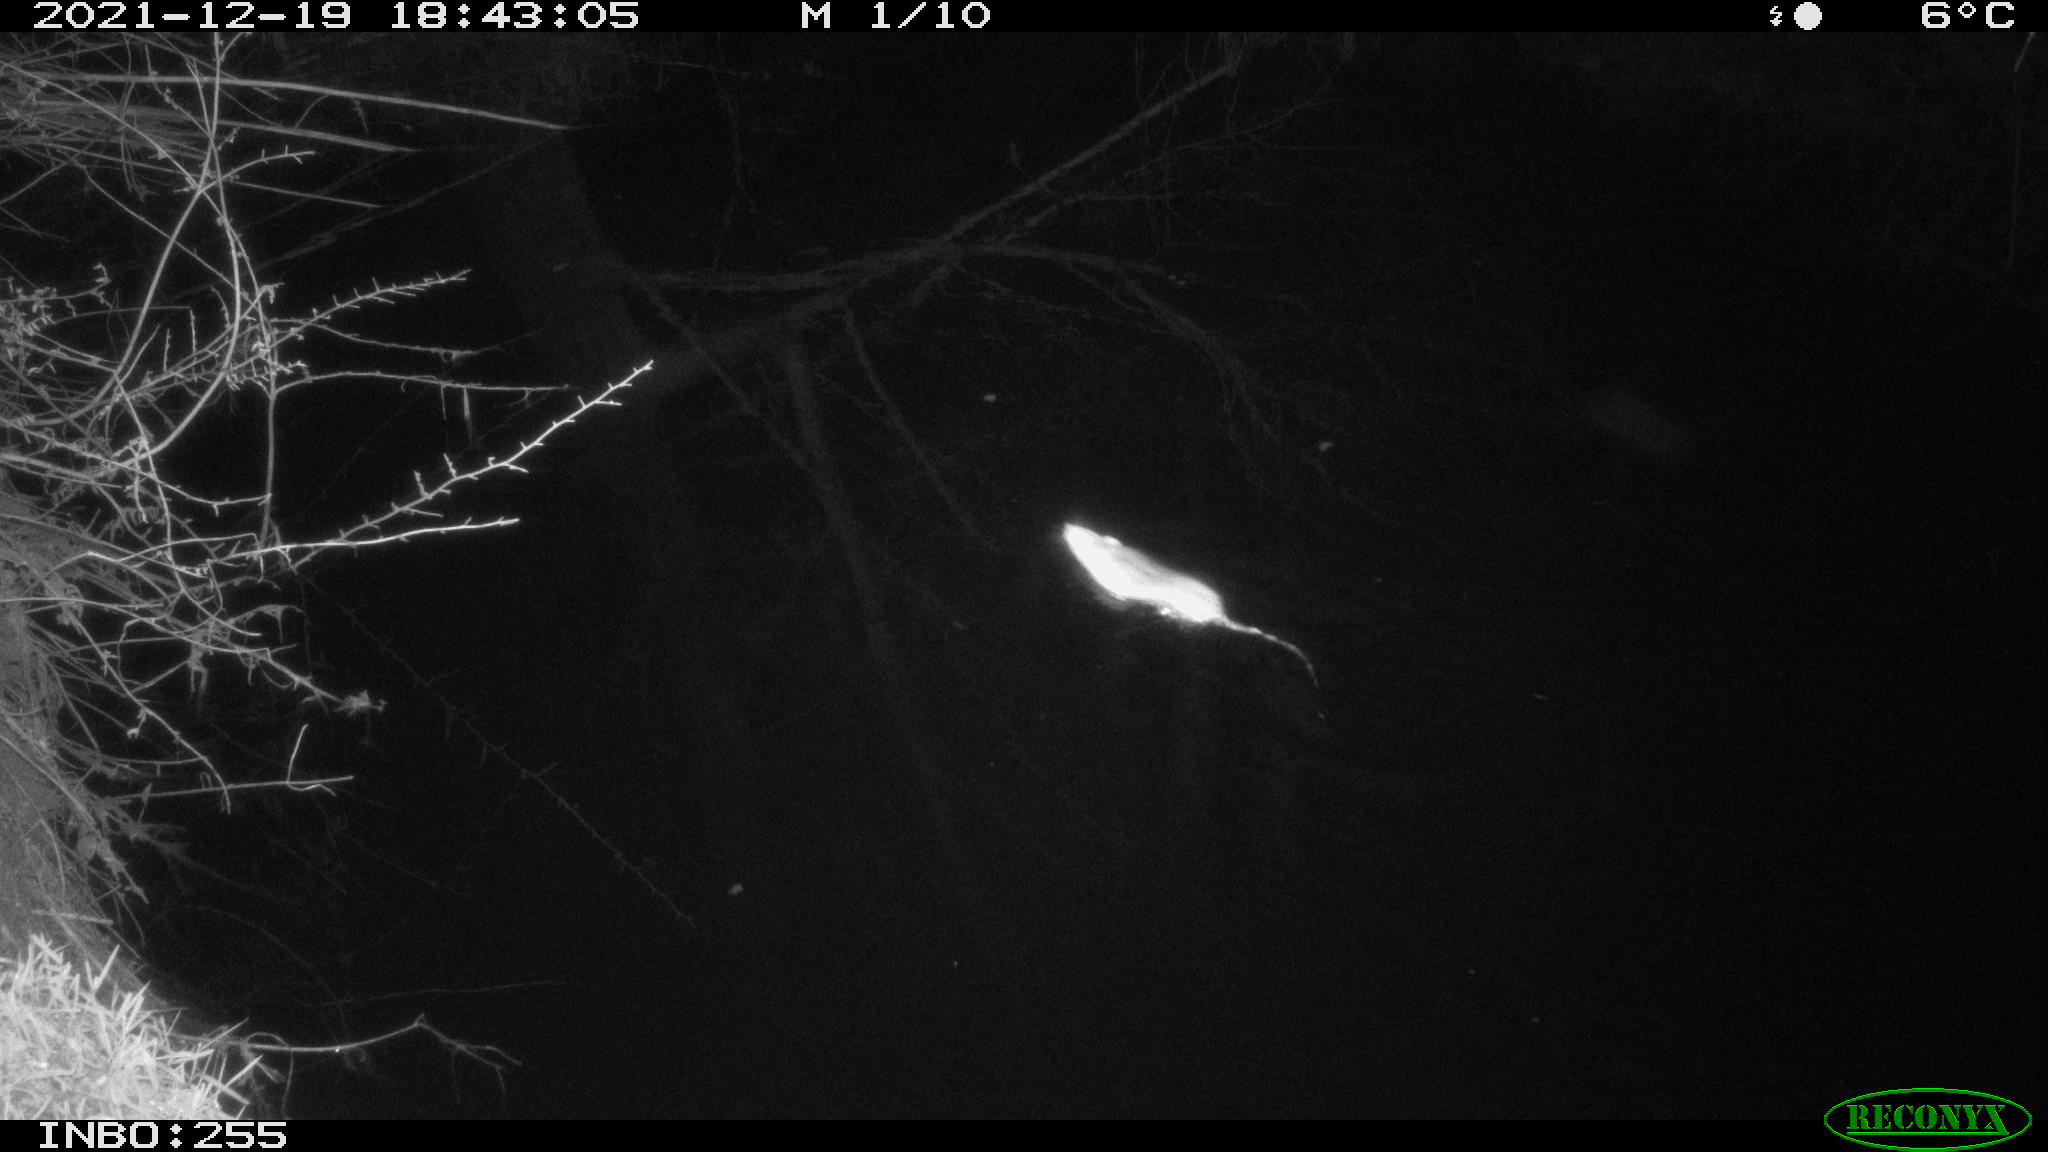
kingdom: Animalia
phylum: Chordata
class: Mammalia
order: Rodentia
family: Muridae
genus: Rattus
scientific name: Rattus norvegicus
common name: Brown rat
